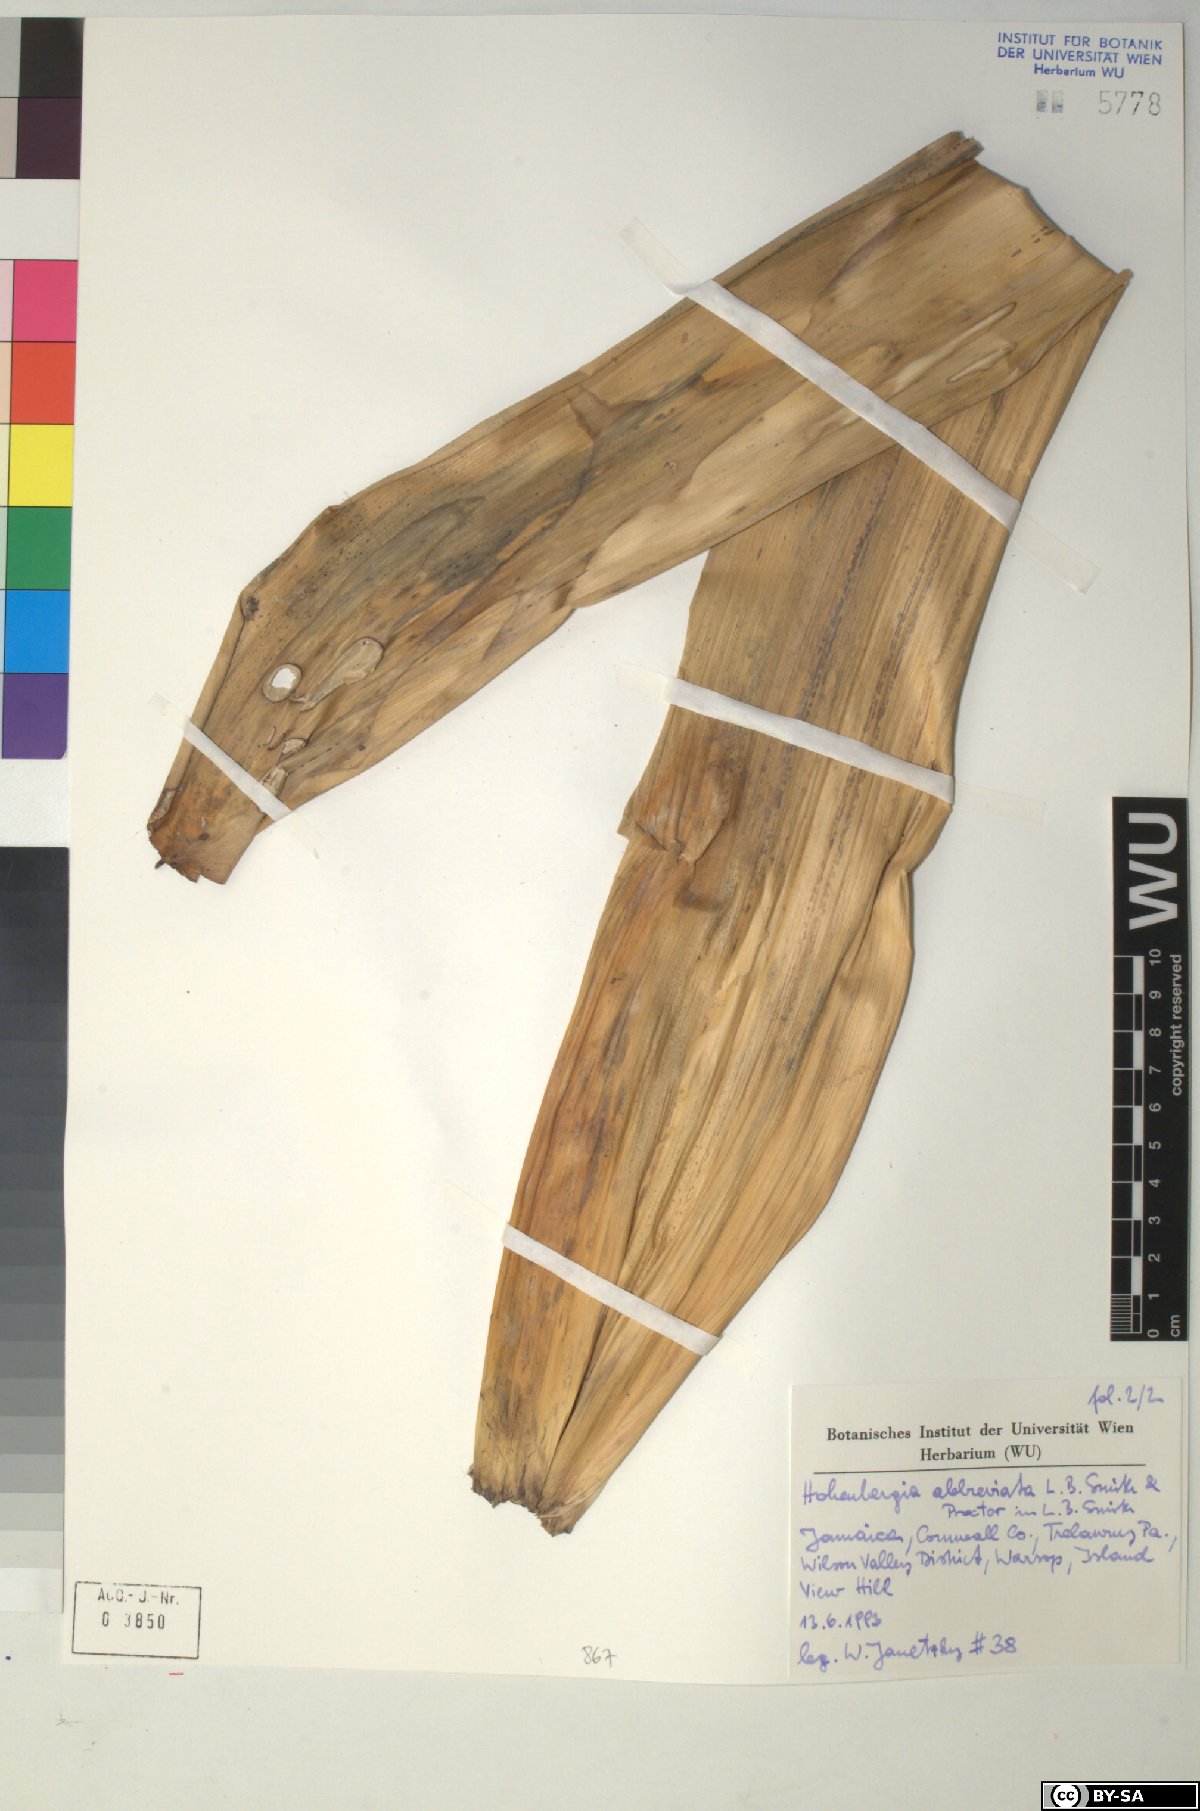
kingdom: Plantae
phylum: Tracheophyta
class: Liliopsida
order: Poales
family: Bromeliaceae
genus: Wittmackia
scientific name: Wittmackia abbreviata
